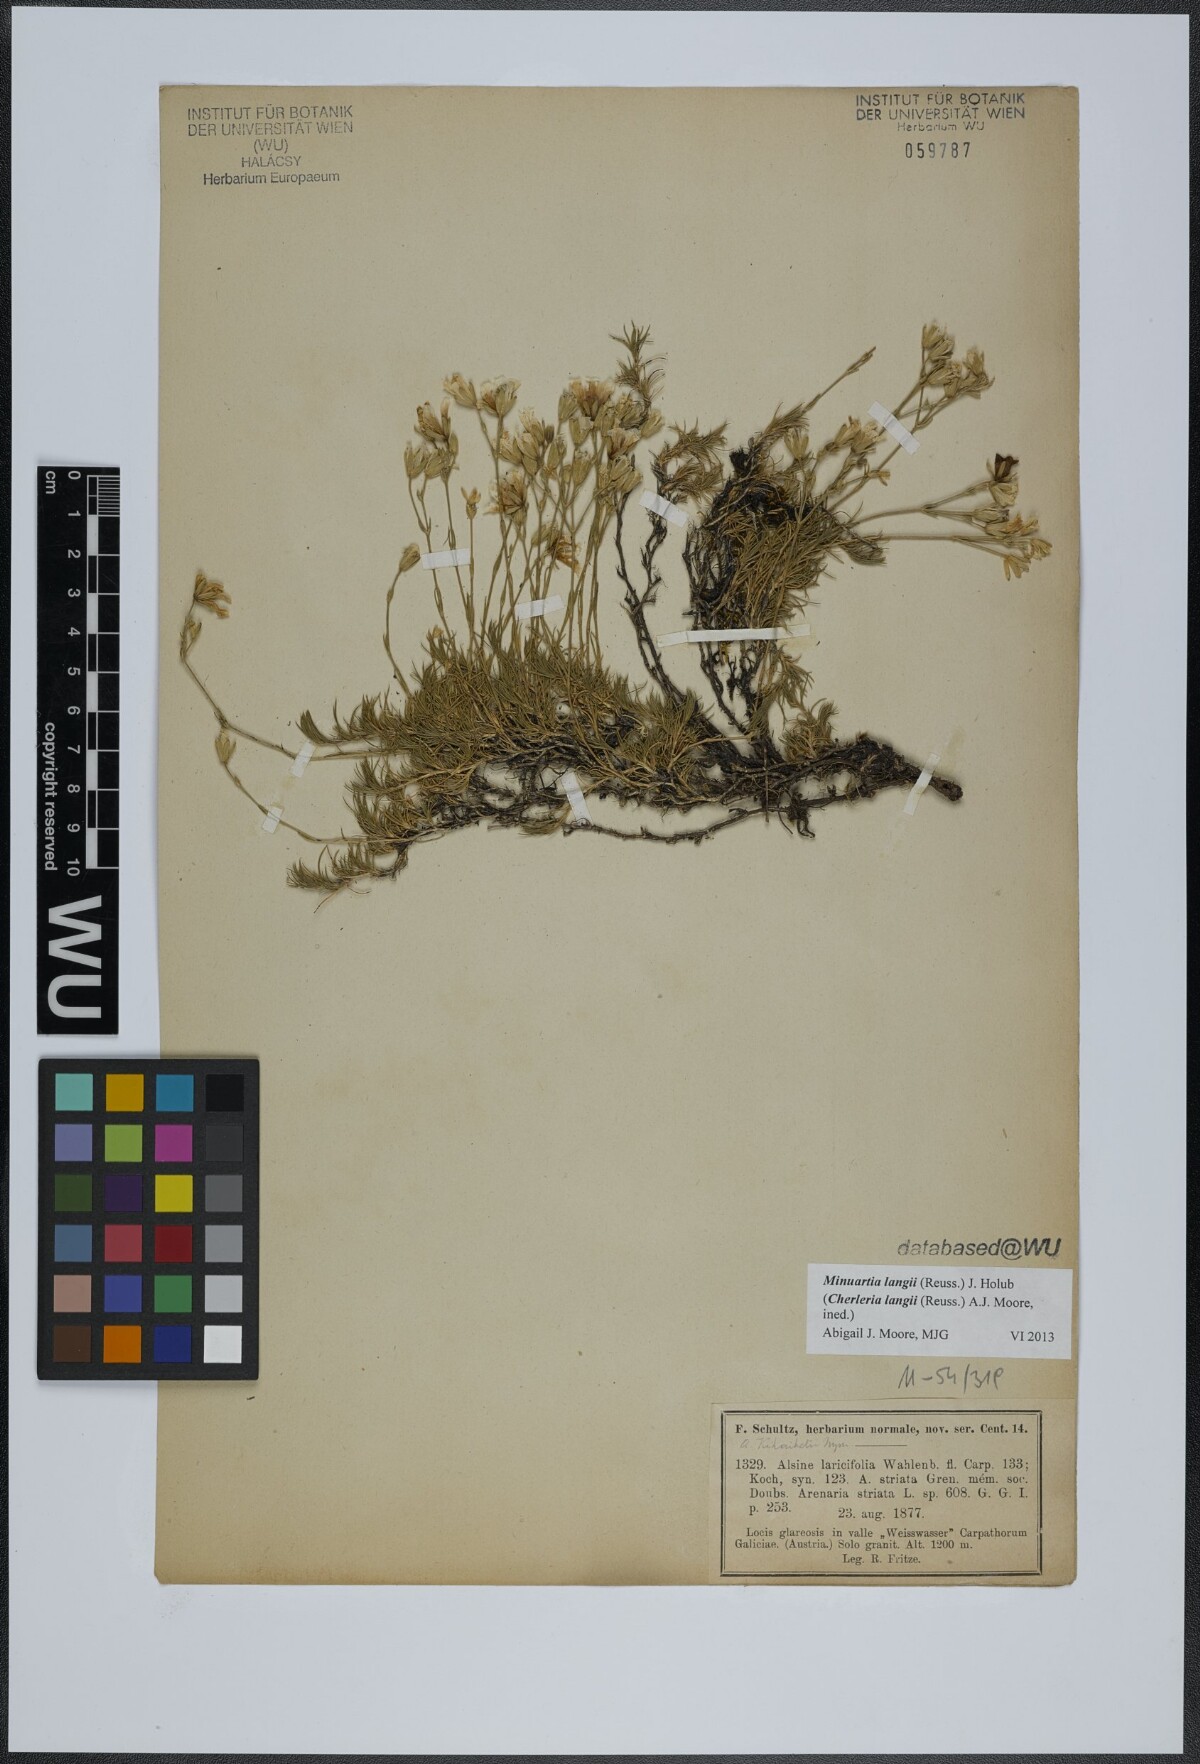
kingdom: Plantae
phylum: Tracheophyta
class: Magnoliopsida
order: Caryophyllales
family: Caryophyllaceae
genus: Cherleria
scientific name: Cherleria langii
